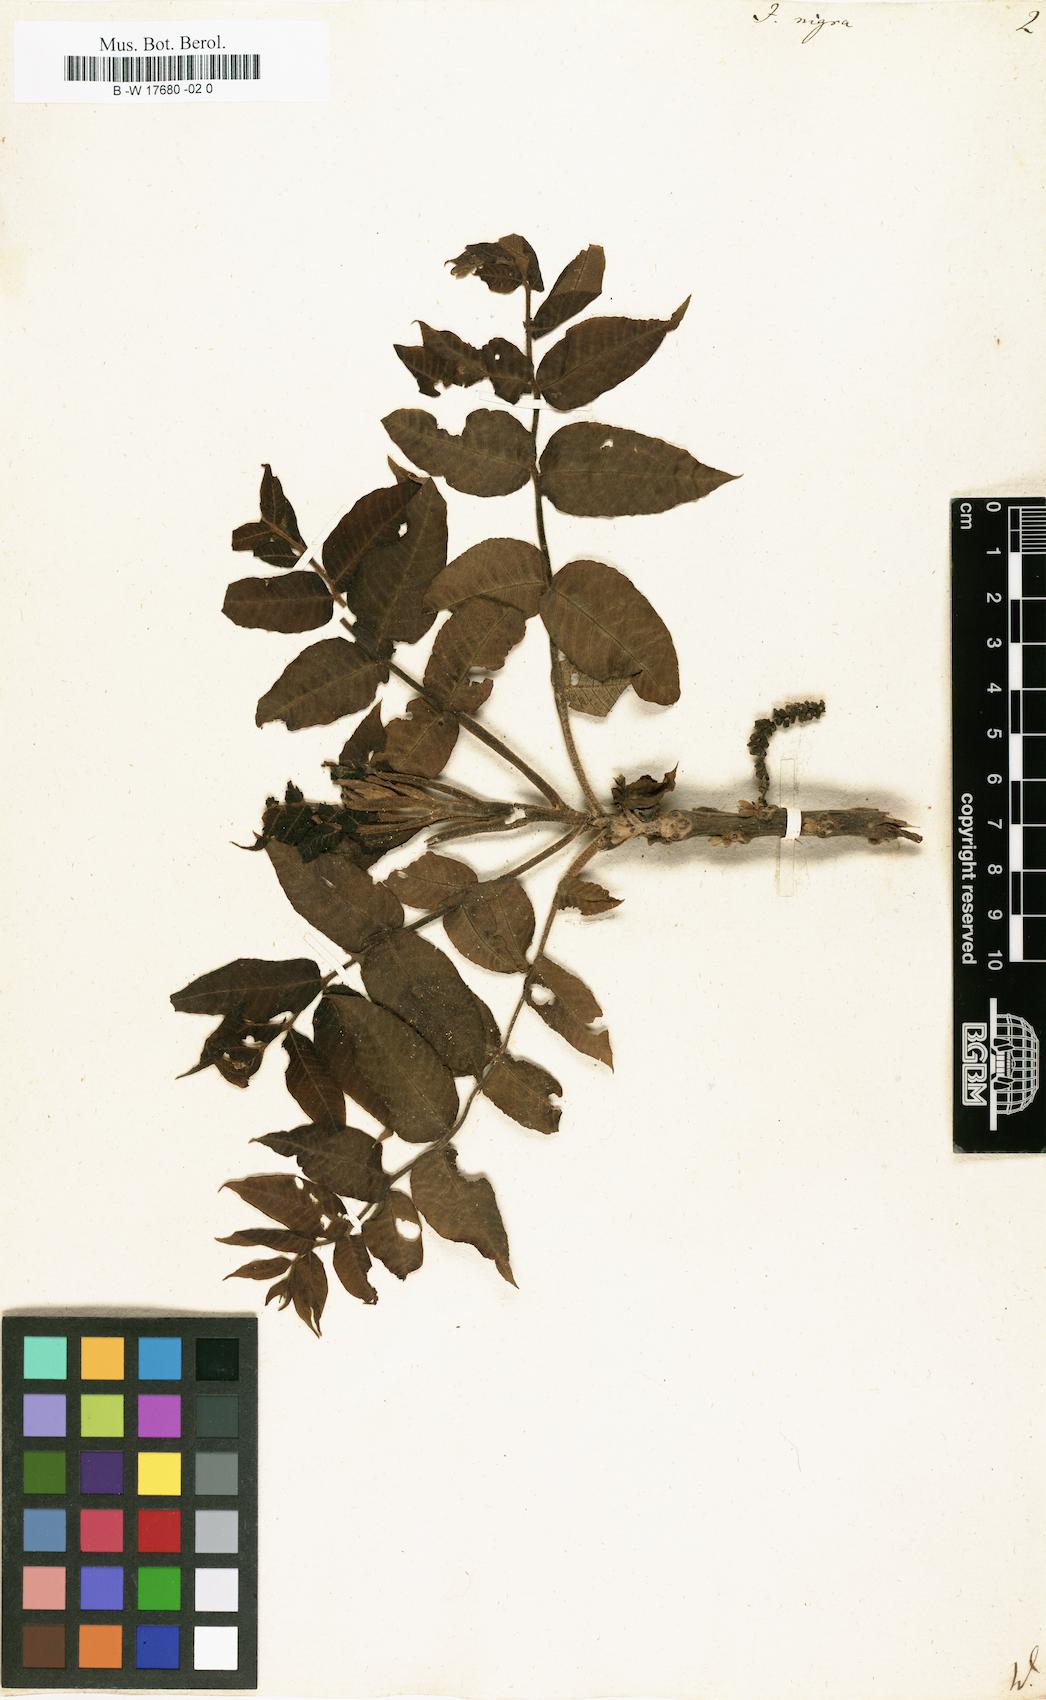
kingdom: Plantae
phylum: Tracheophyta
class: Magnoliopsida
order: Fagales
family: Juglandaceae
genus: Juglans
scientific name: Juglans nigra
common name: Black walnut
